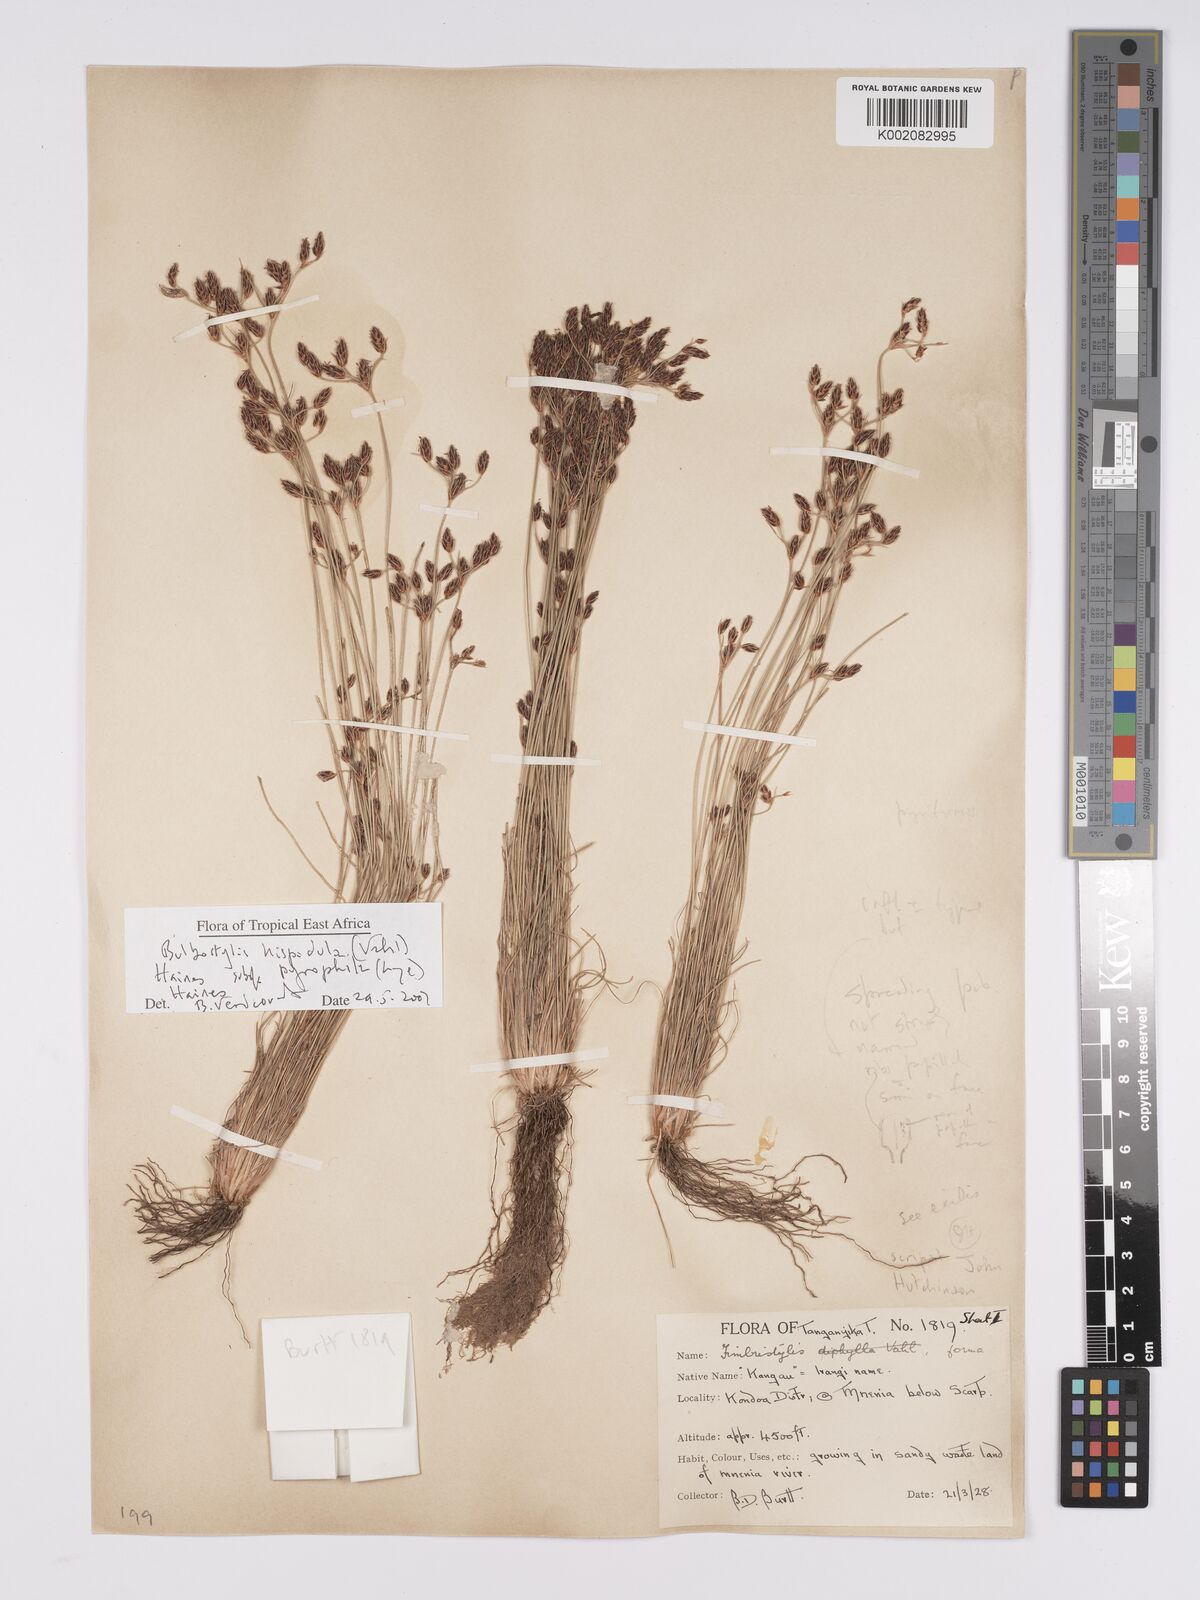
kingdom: Plantae
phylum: Tracheophyta
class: Liliopsida
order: Poales
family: Cyperaceae
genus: Bulbostylis
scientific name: Bulbostylis hispidula
